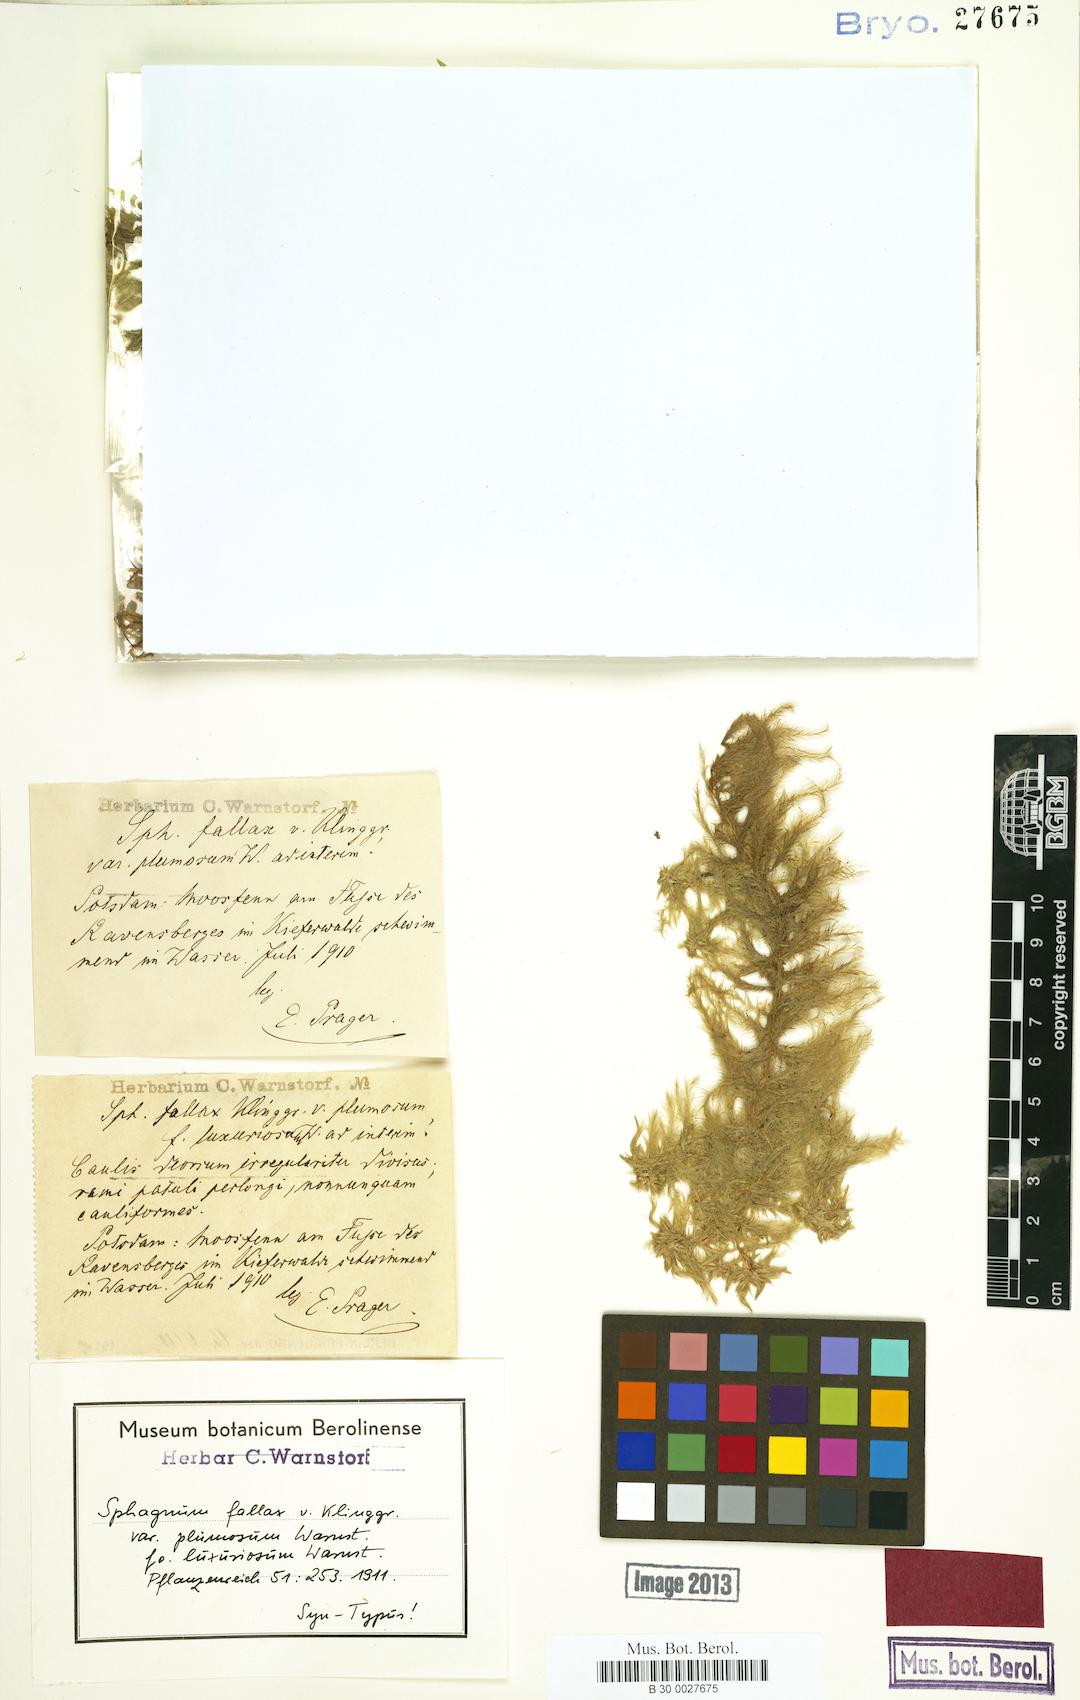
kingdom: Plantae
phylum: Bryophyta
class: Sphagnopsida
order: Sphagnales
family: Sphagnaceae
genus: Sphagnum
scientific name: Sphagnum fallax
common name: Flat-top peat moss
